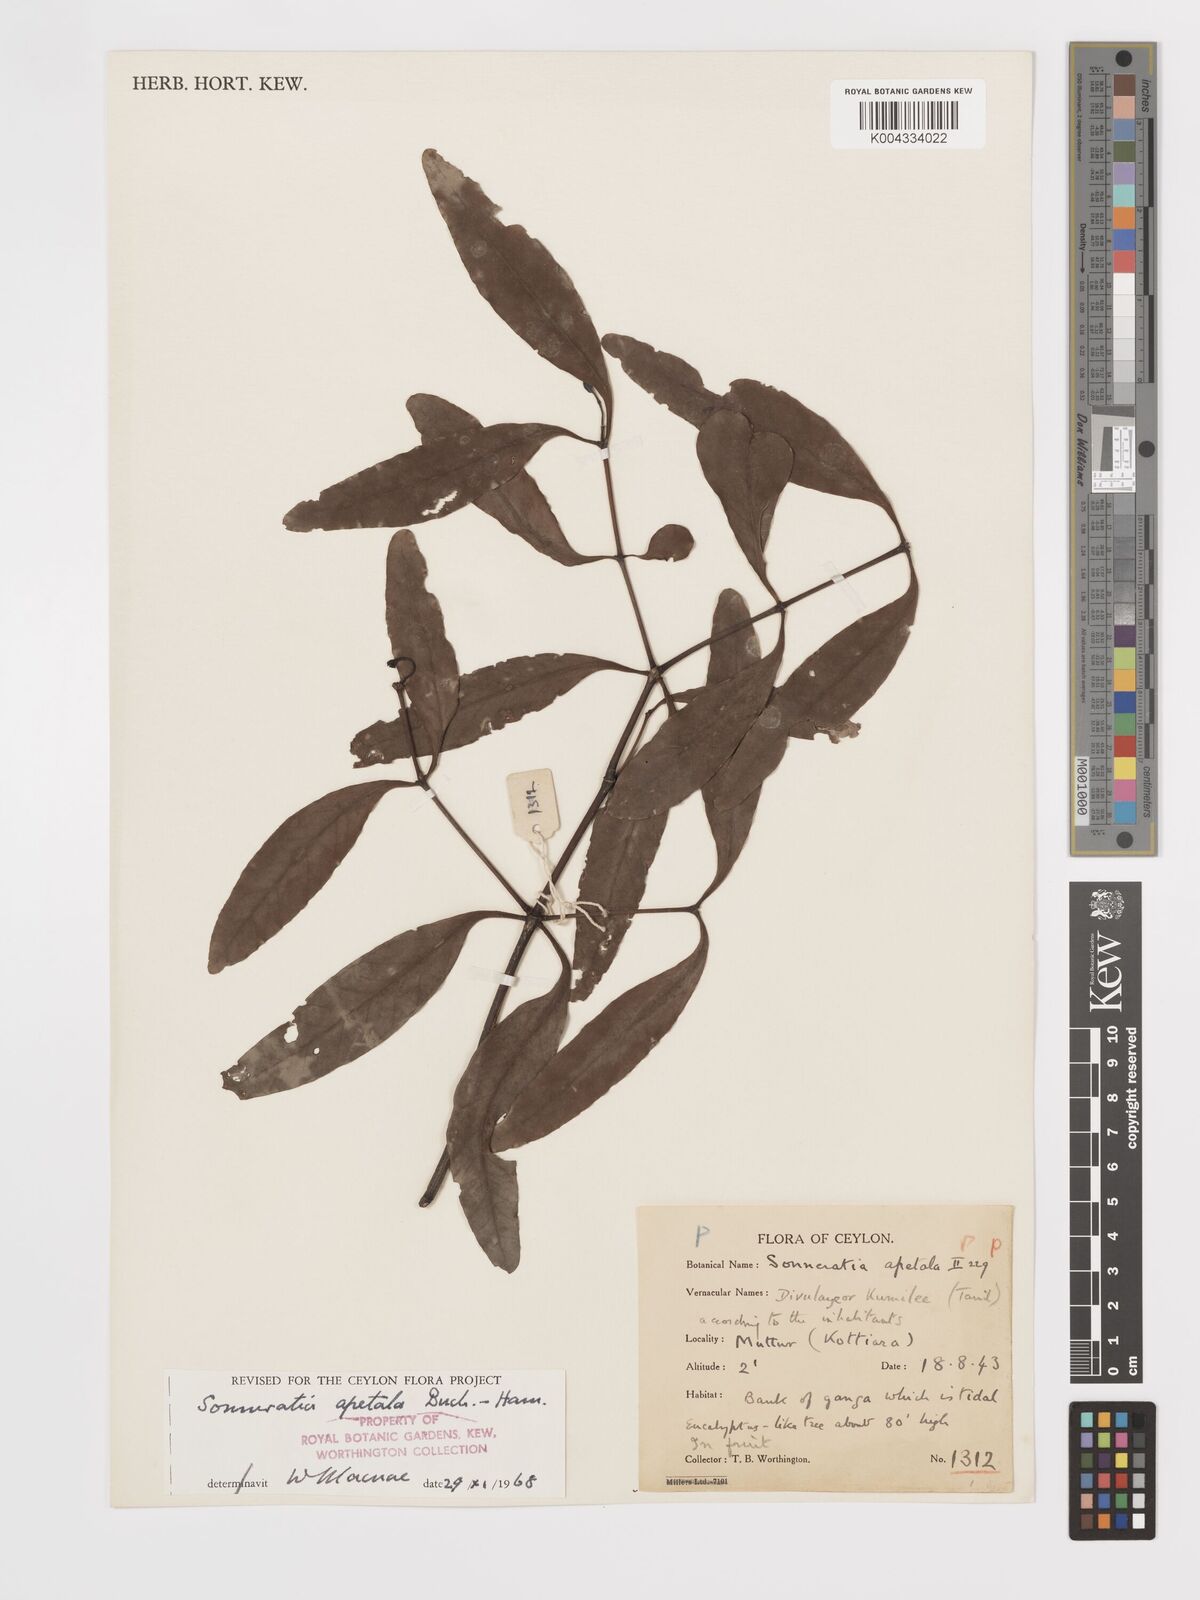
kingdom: Plantae
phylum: Tracheophyta
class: Magnoliopsida
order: Myrtales
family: Lythraceae
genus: Sonneratia
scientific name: Sonneratia apetala
